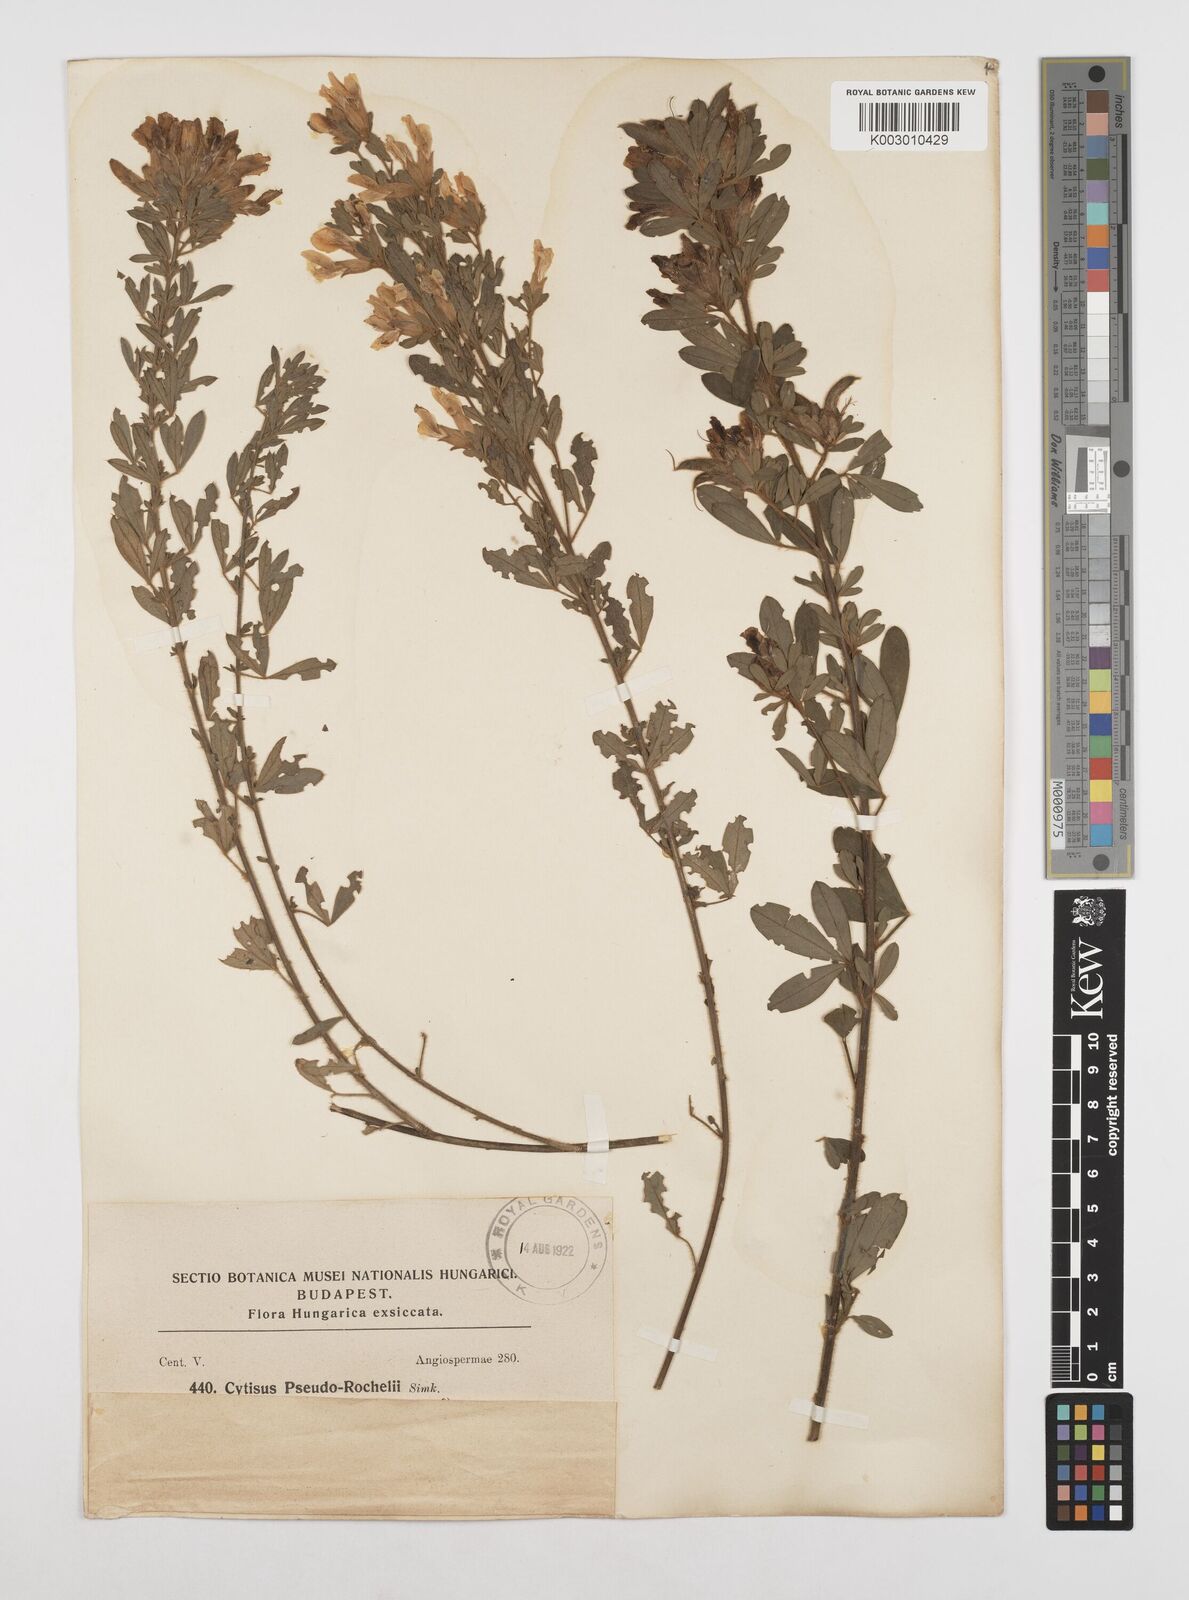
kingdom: Plantae
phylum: Tracheophyta
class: Magnoliopsida
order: Fabales
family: Fabaceae
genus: Chamaecytisus
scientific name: Chamaecytisus austriacus
